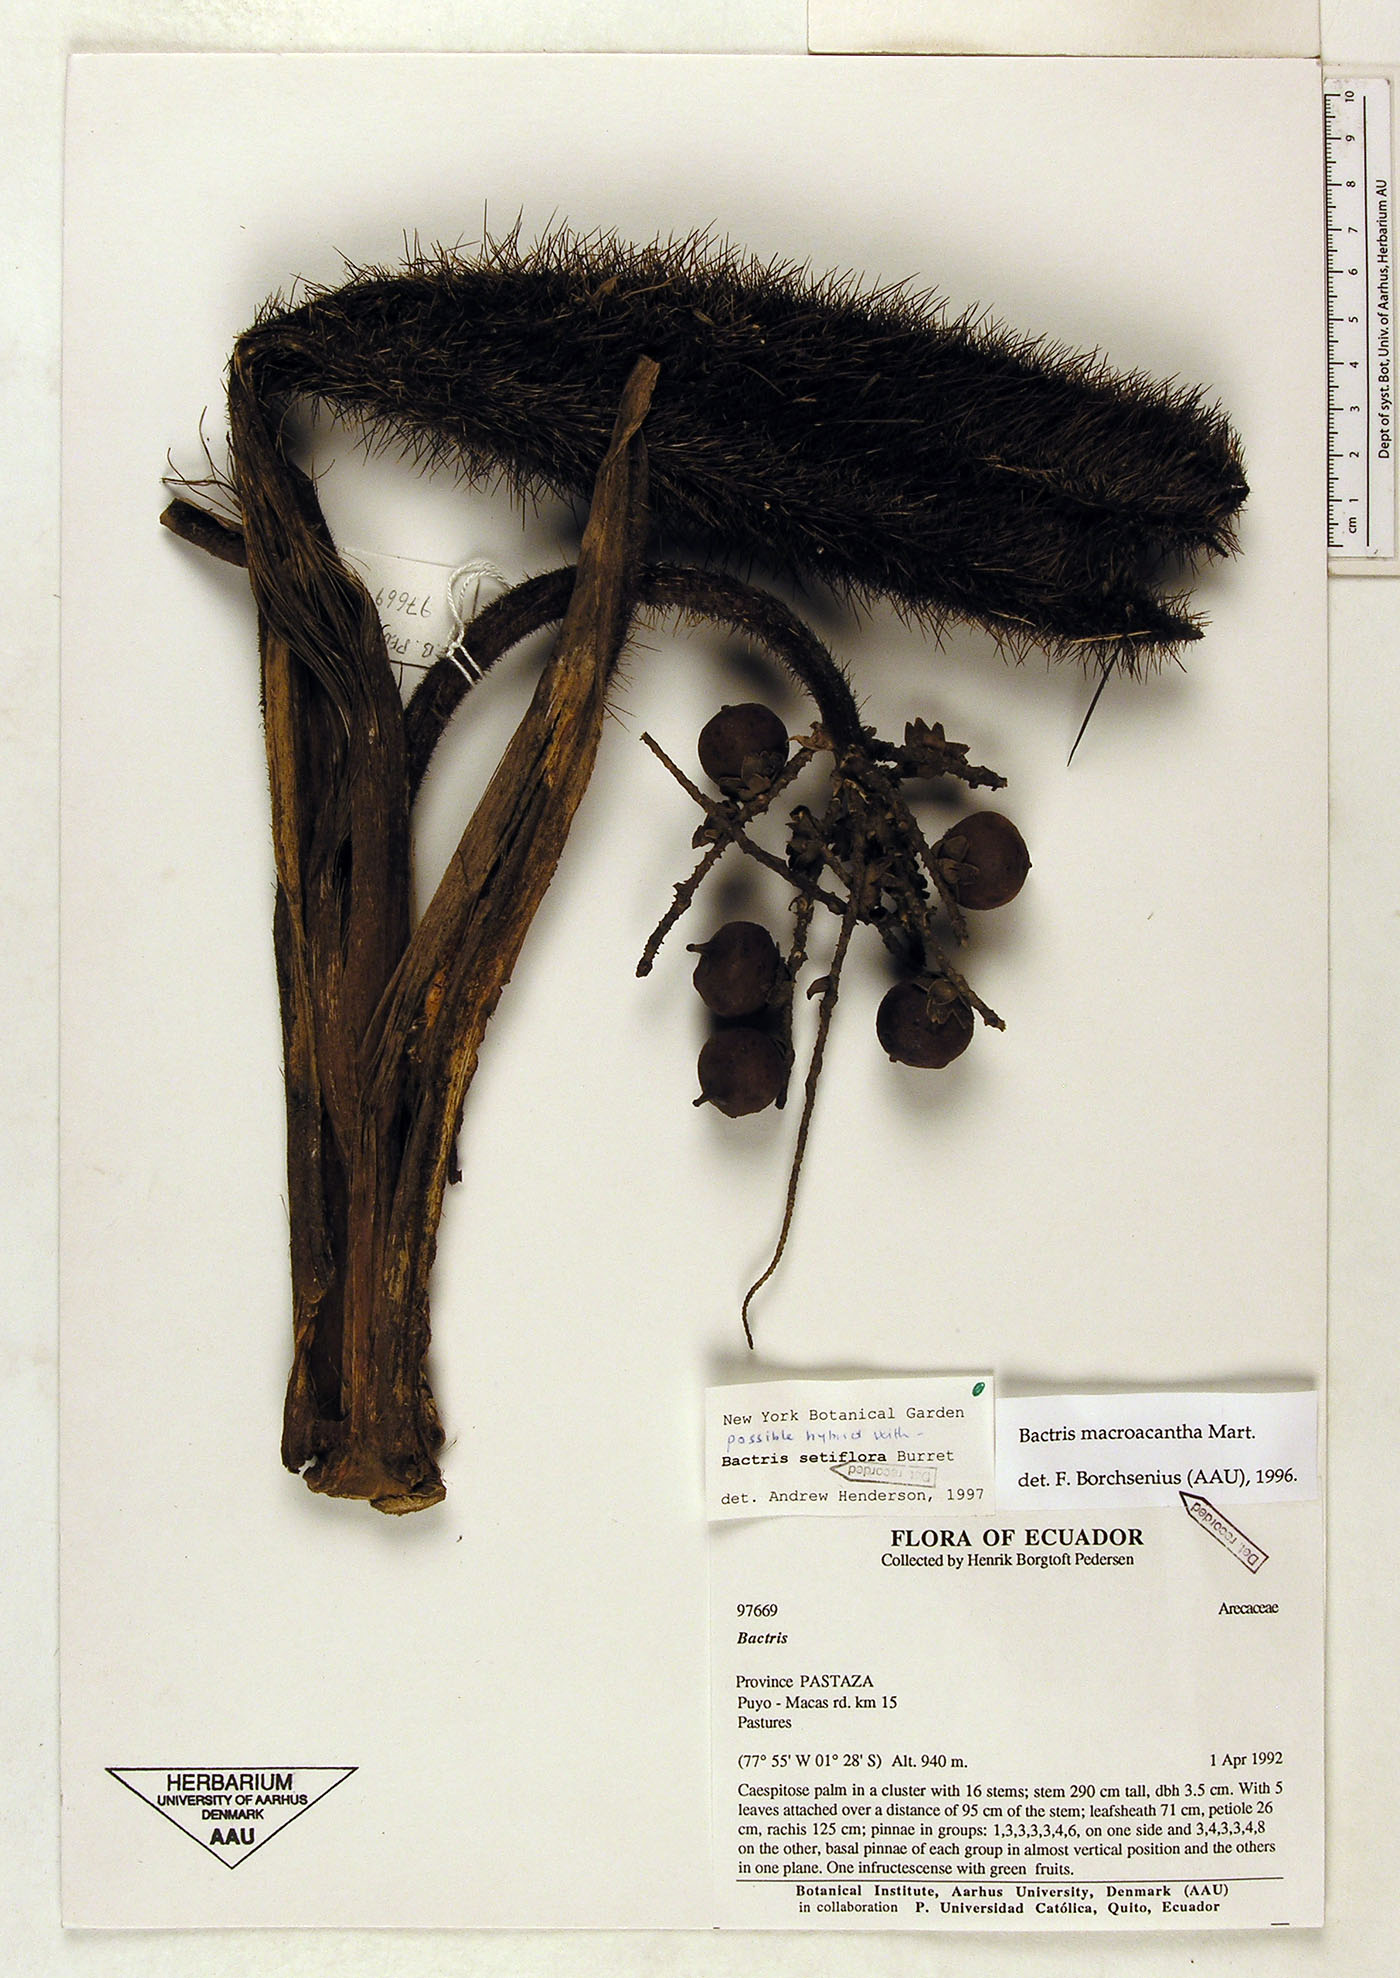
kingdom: Plantae
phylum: Tracheophyta
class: Liliopsida
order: Arecales
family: Arecaceae
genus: Bactris
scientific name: Bactris setiflora
